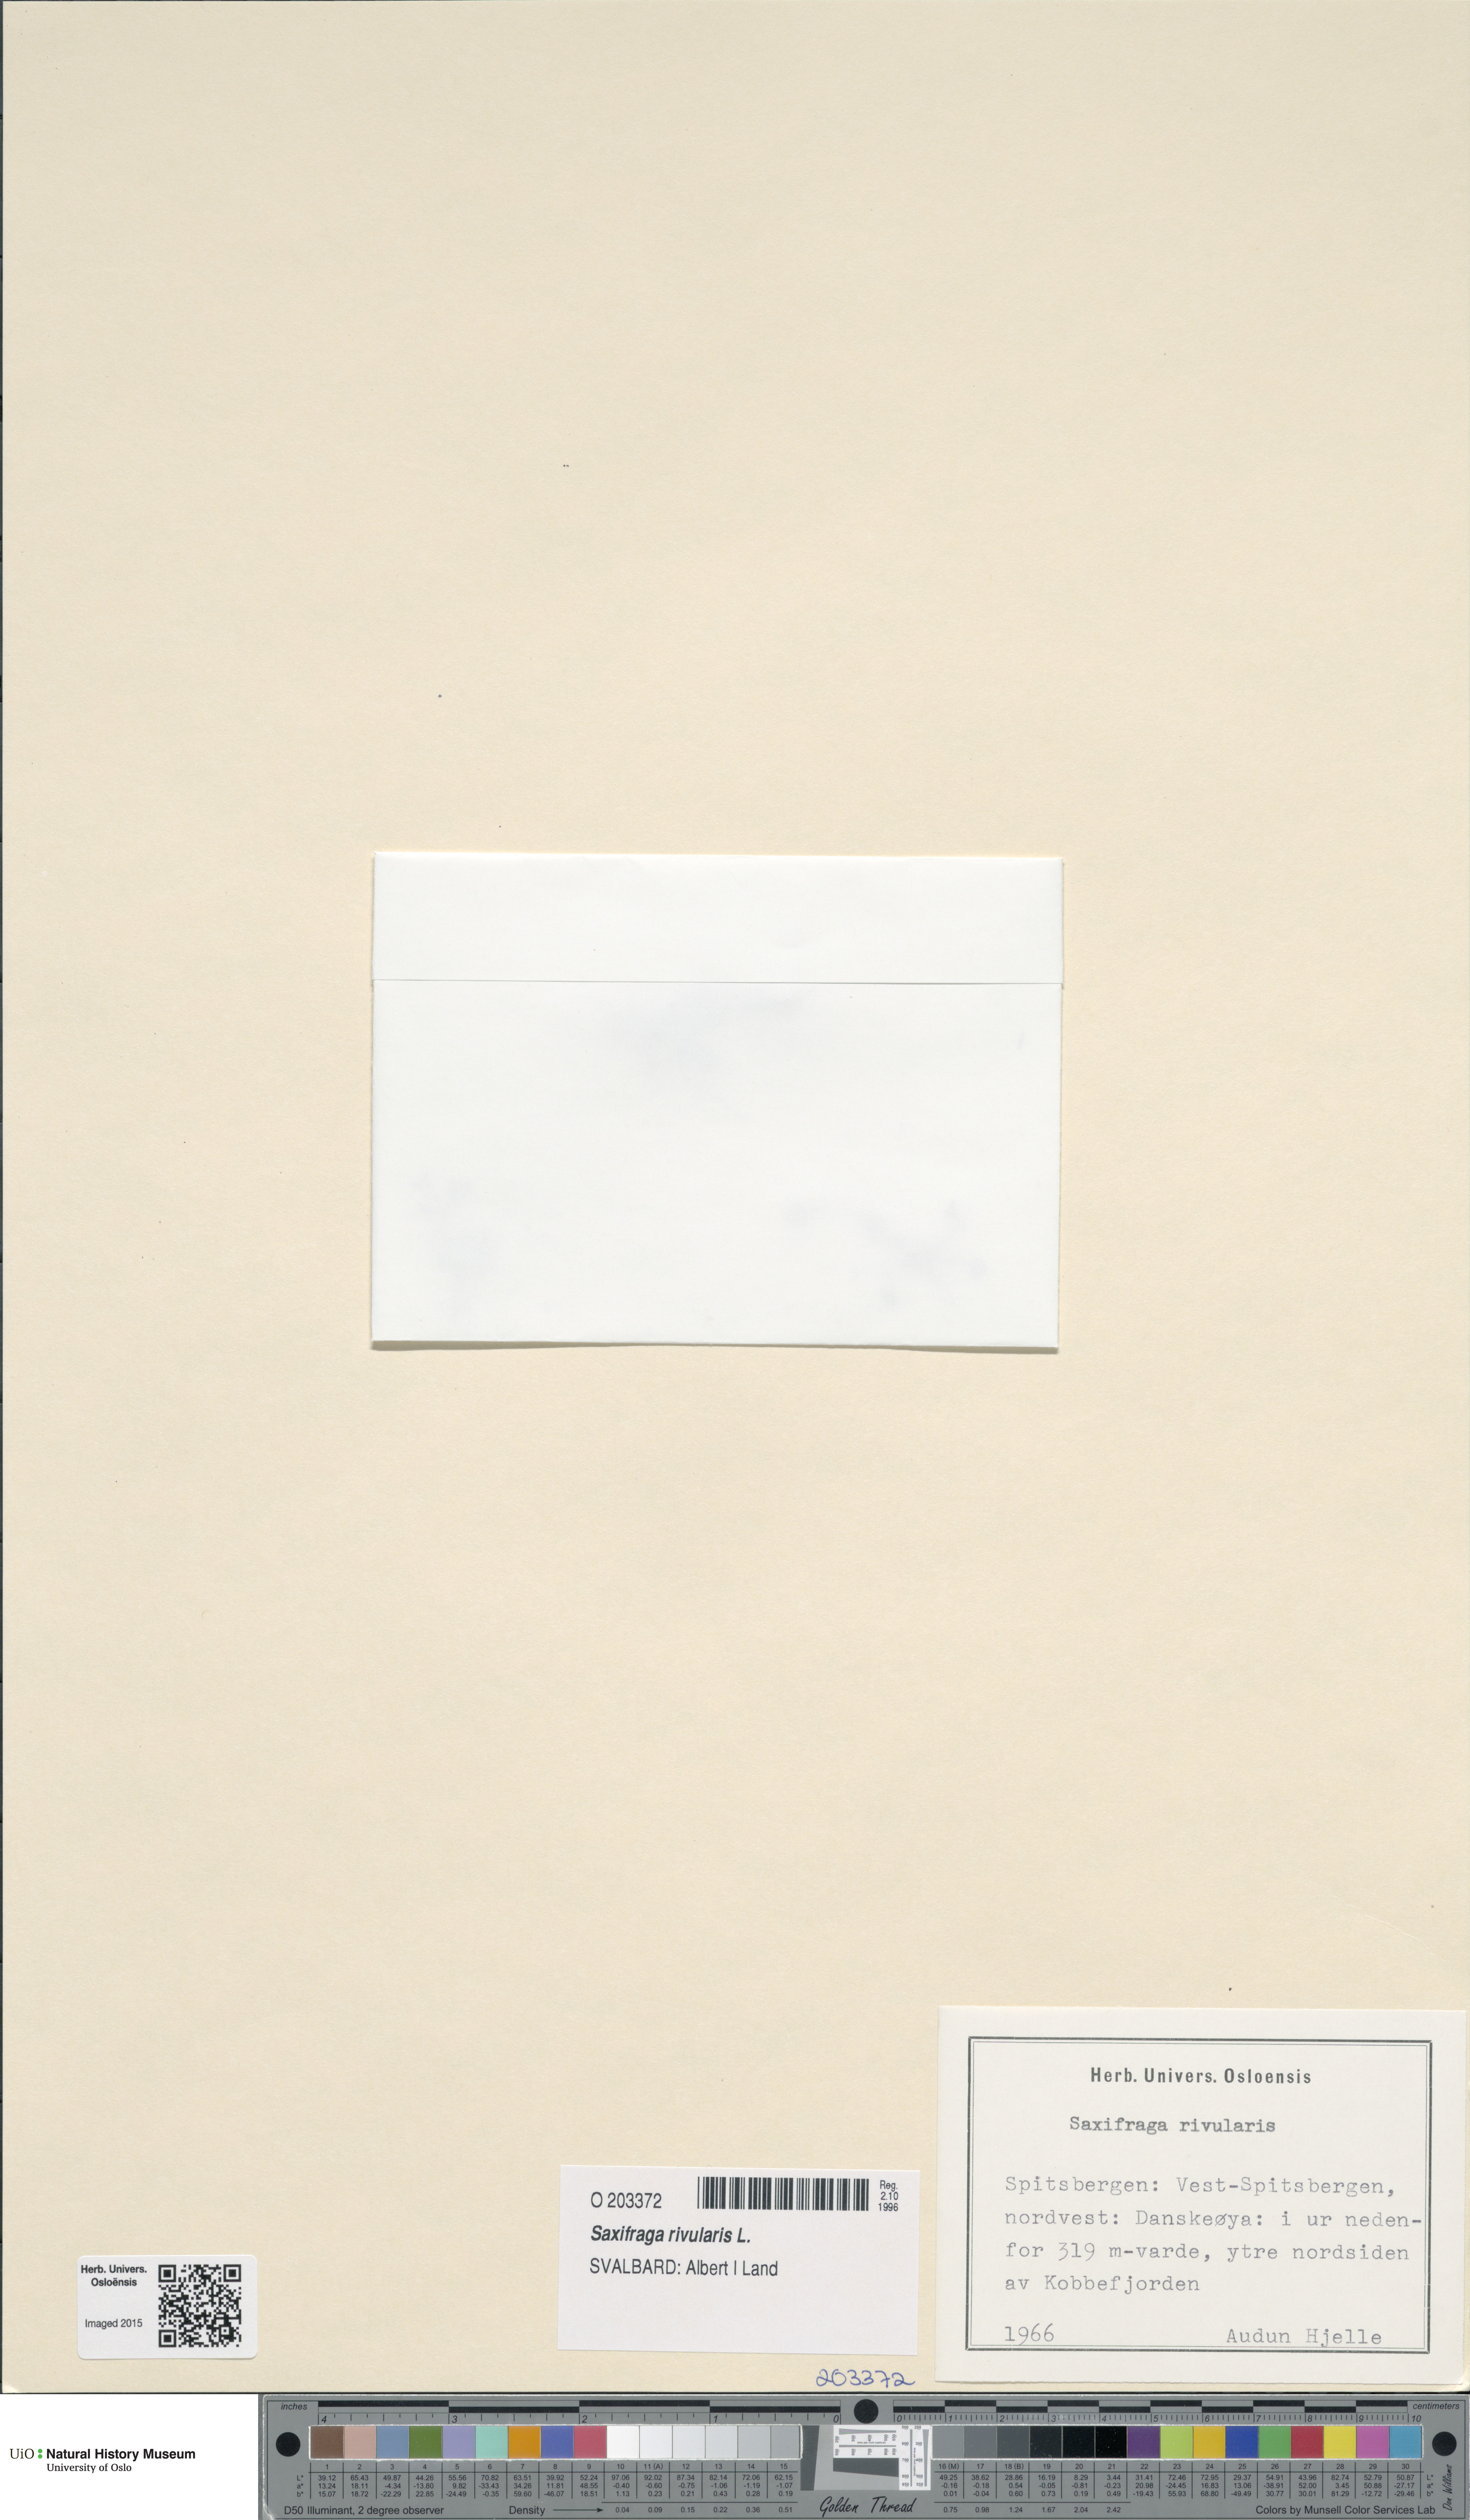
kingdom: Plantae
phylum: Tracheophyta
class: Magnoliopsida
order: Saxifragales
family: Saxifragaceae
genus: Saxifraga
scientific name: Saxifraga rivularis
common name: Highland saxifrage
